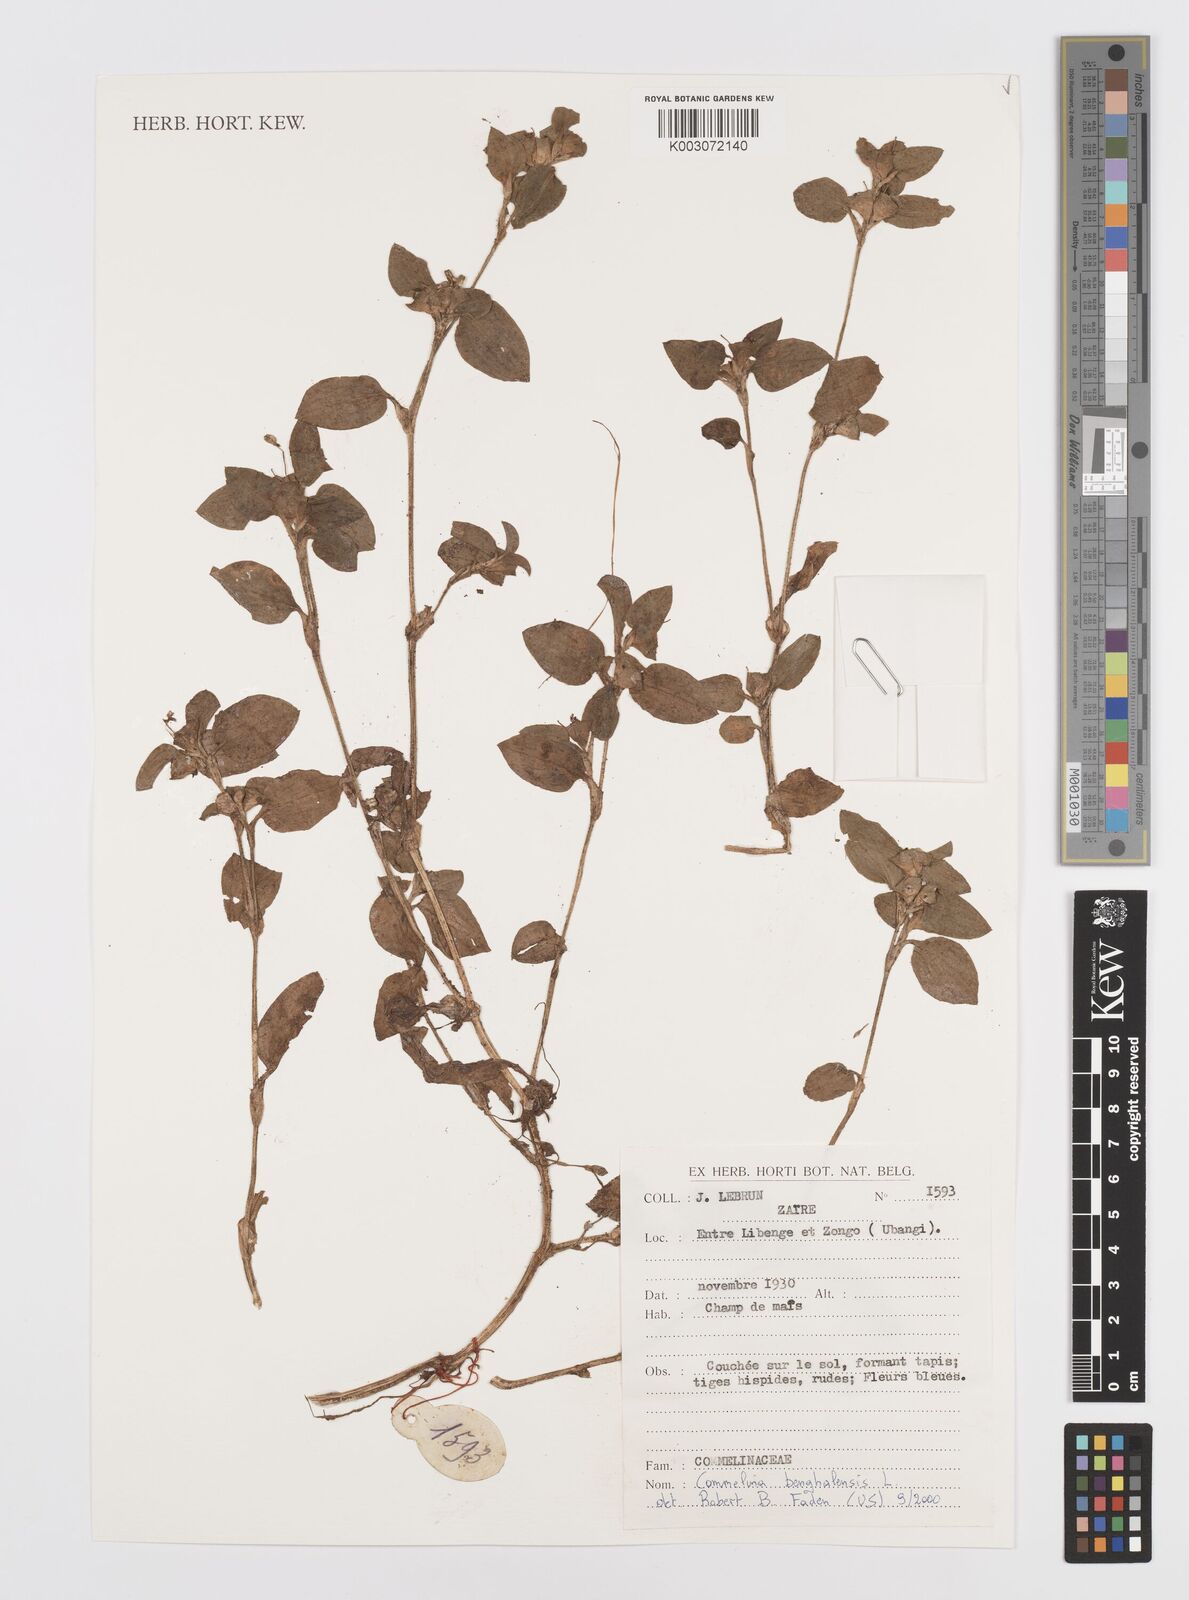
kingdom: Plantae
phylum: Tracheophyta
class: Liliopsida
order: Commelinales
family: Commelinaceae
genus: Commelina
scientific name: Commelina benghalensis
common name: Jio
